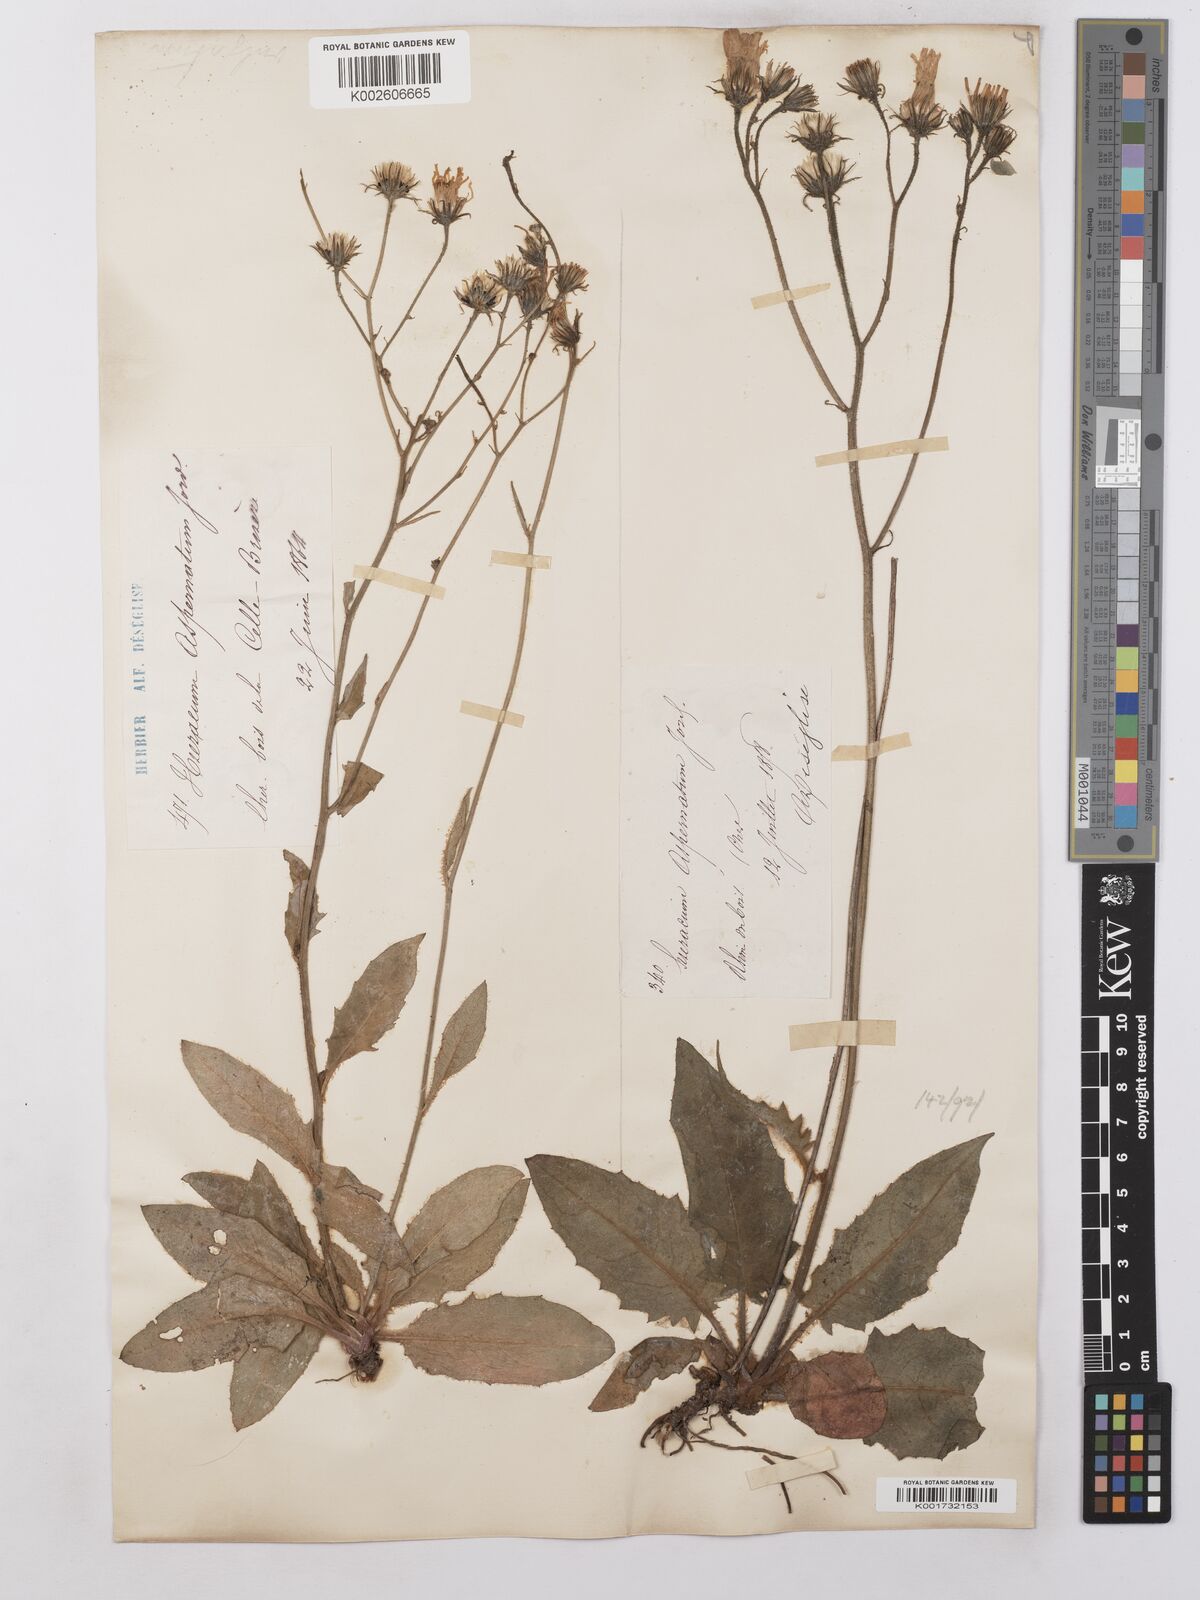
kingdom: Plantae
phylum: Tracheophyta
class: Magnoliopsida
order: Asterales
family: Asteraceae
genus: Hieracium
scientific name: Hieracium lachenalii
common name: Common hawkweed
